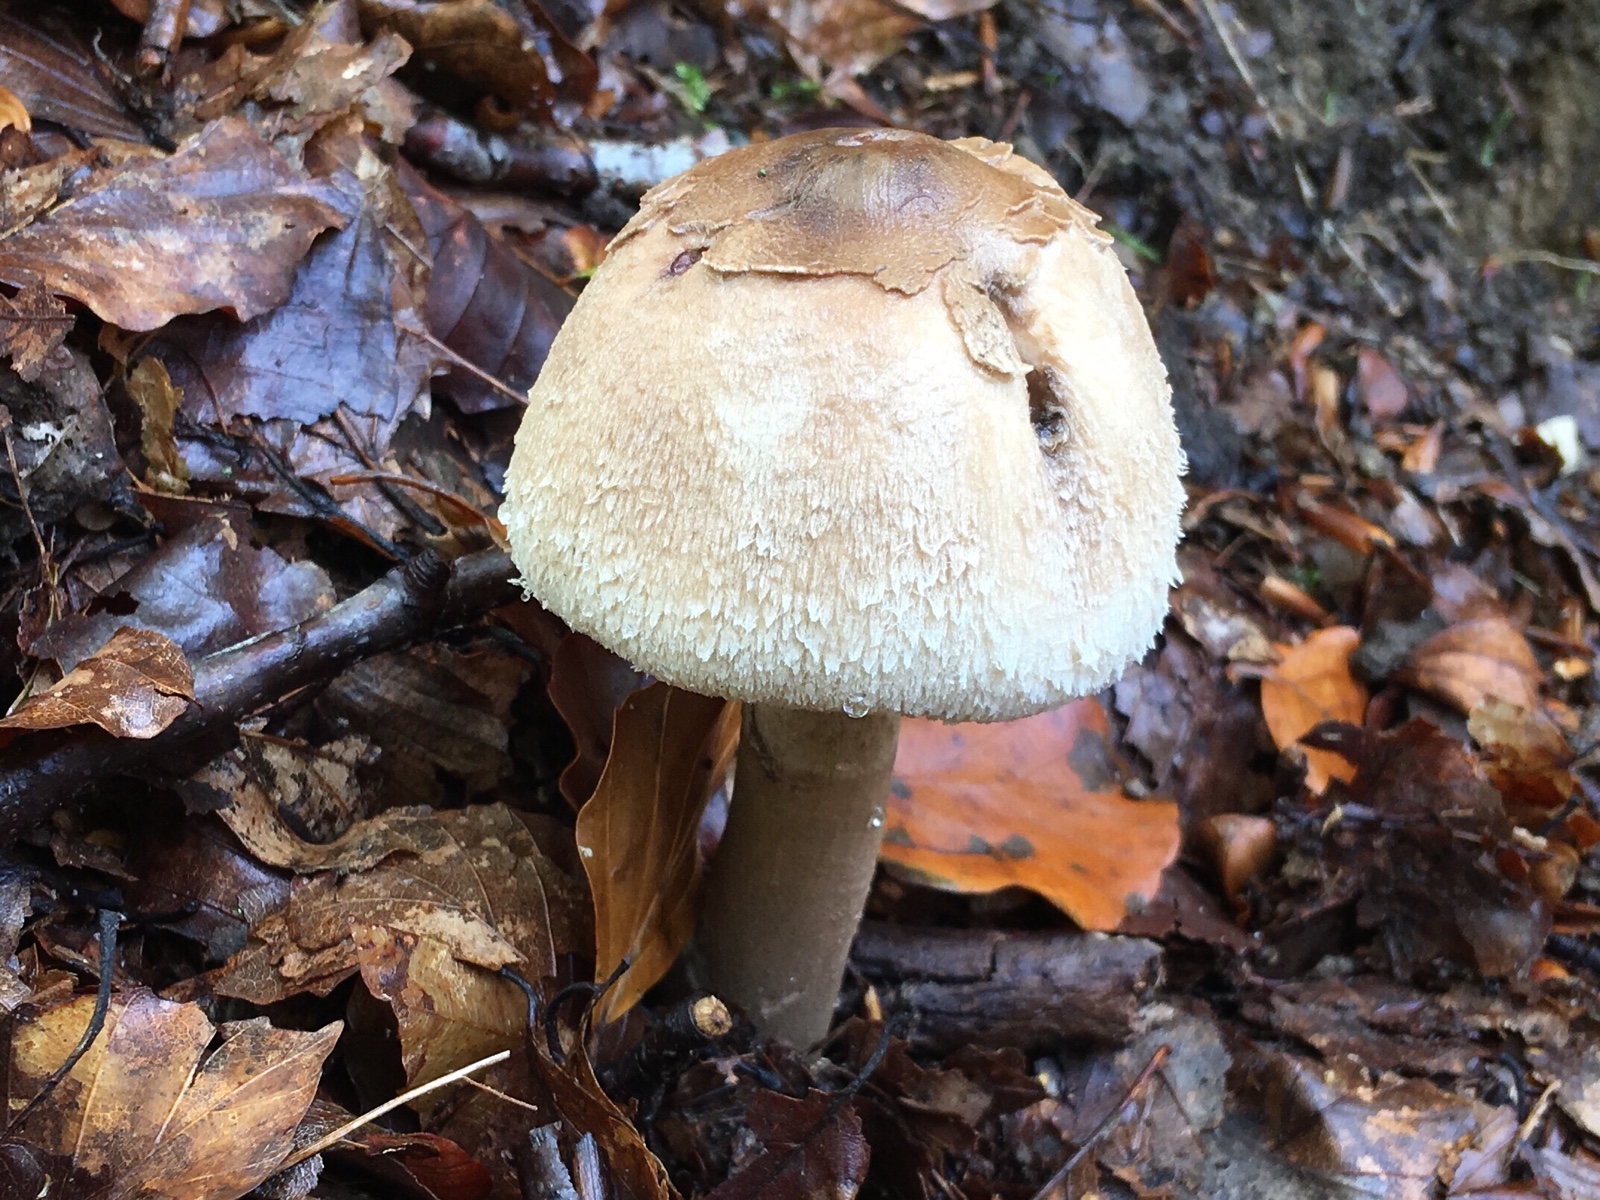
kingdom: Fungi
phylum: Basidiomycota
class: Agaricomycetes
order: Agaricales
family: Agaricaceae
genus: Macrolepiota
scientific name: Macrolepiota mastoidea
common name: puklet kæmpeparasolhat
